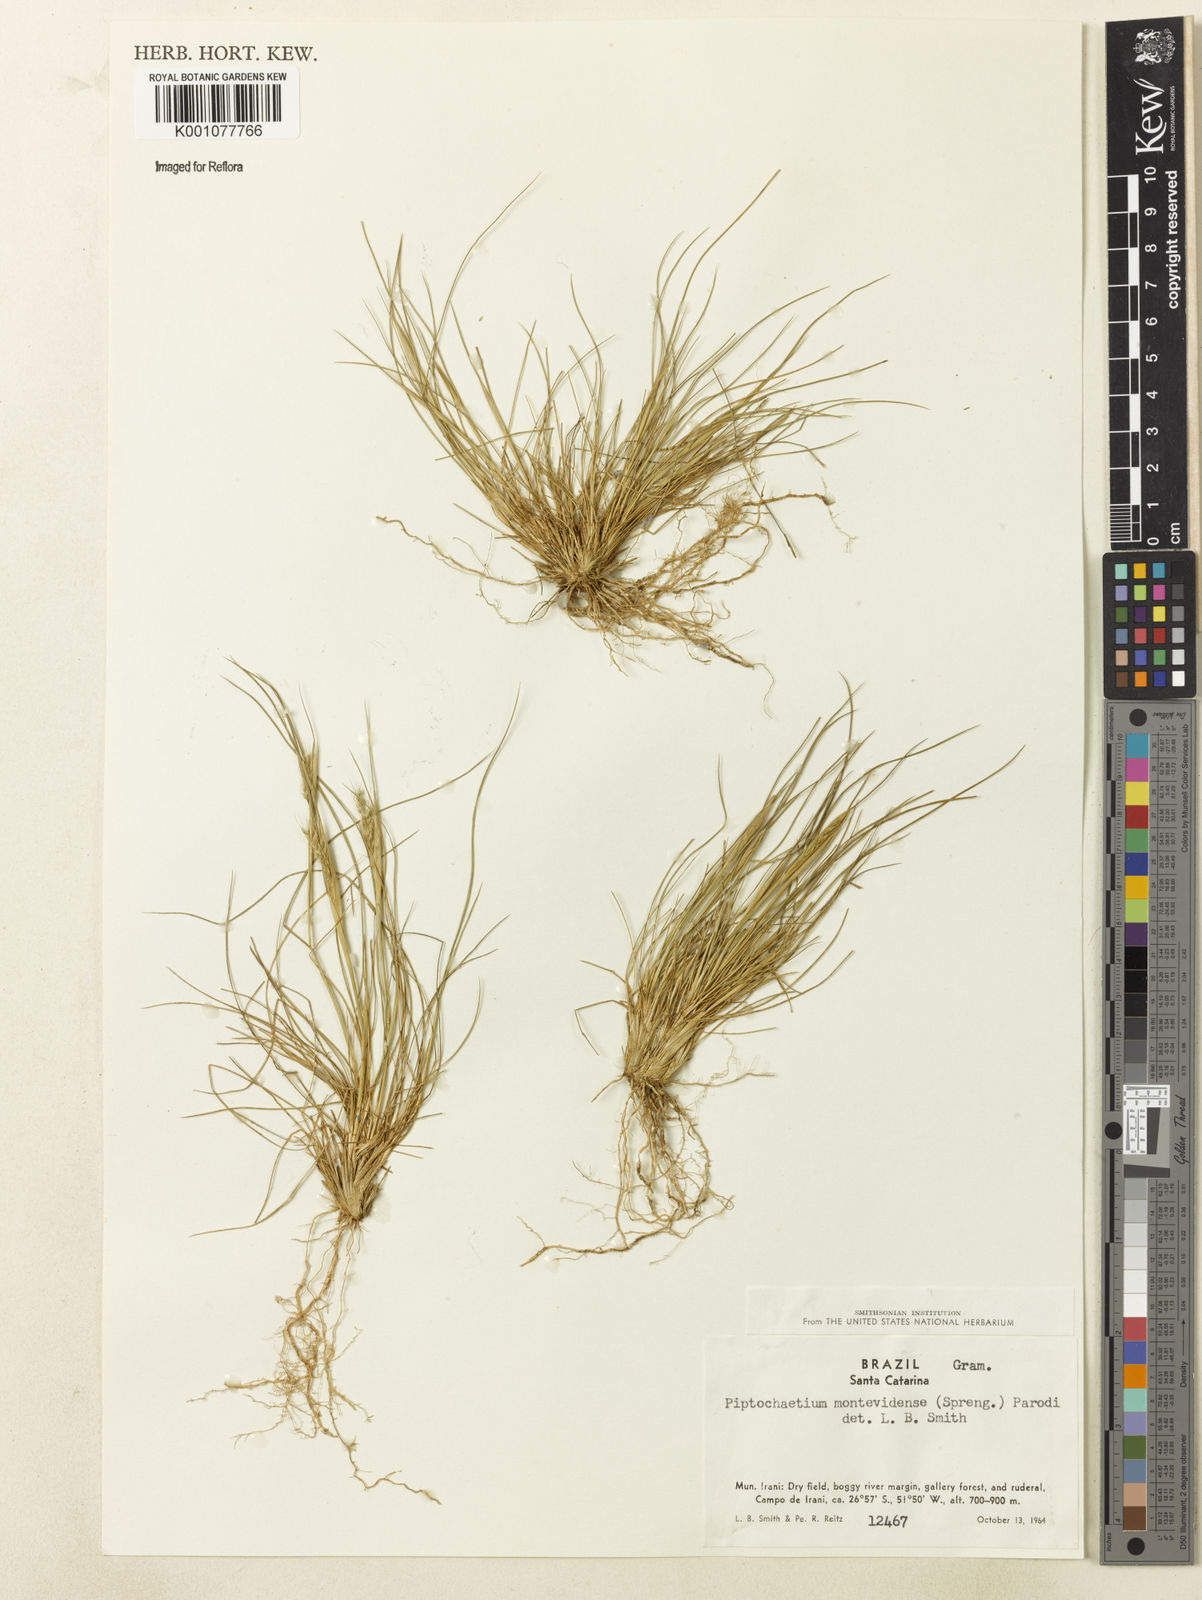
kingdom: Plantae
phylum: Tracheophyta
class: Liliopsida
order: Poales
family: Poaceae
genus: Piptochaetium
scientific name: Piptochaetium montevidense
